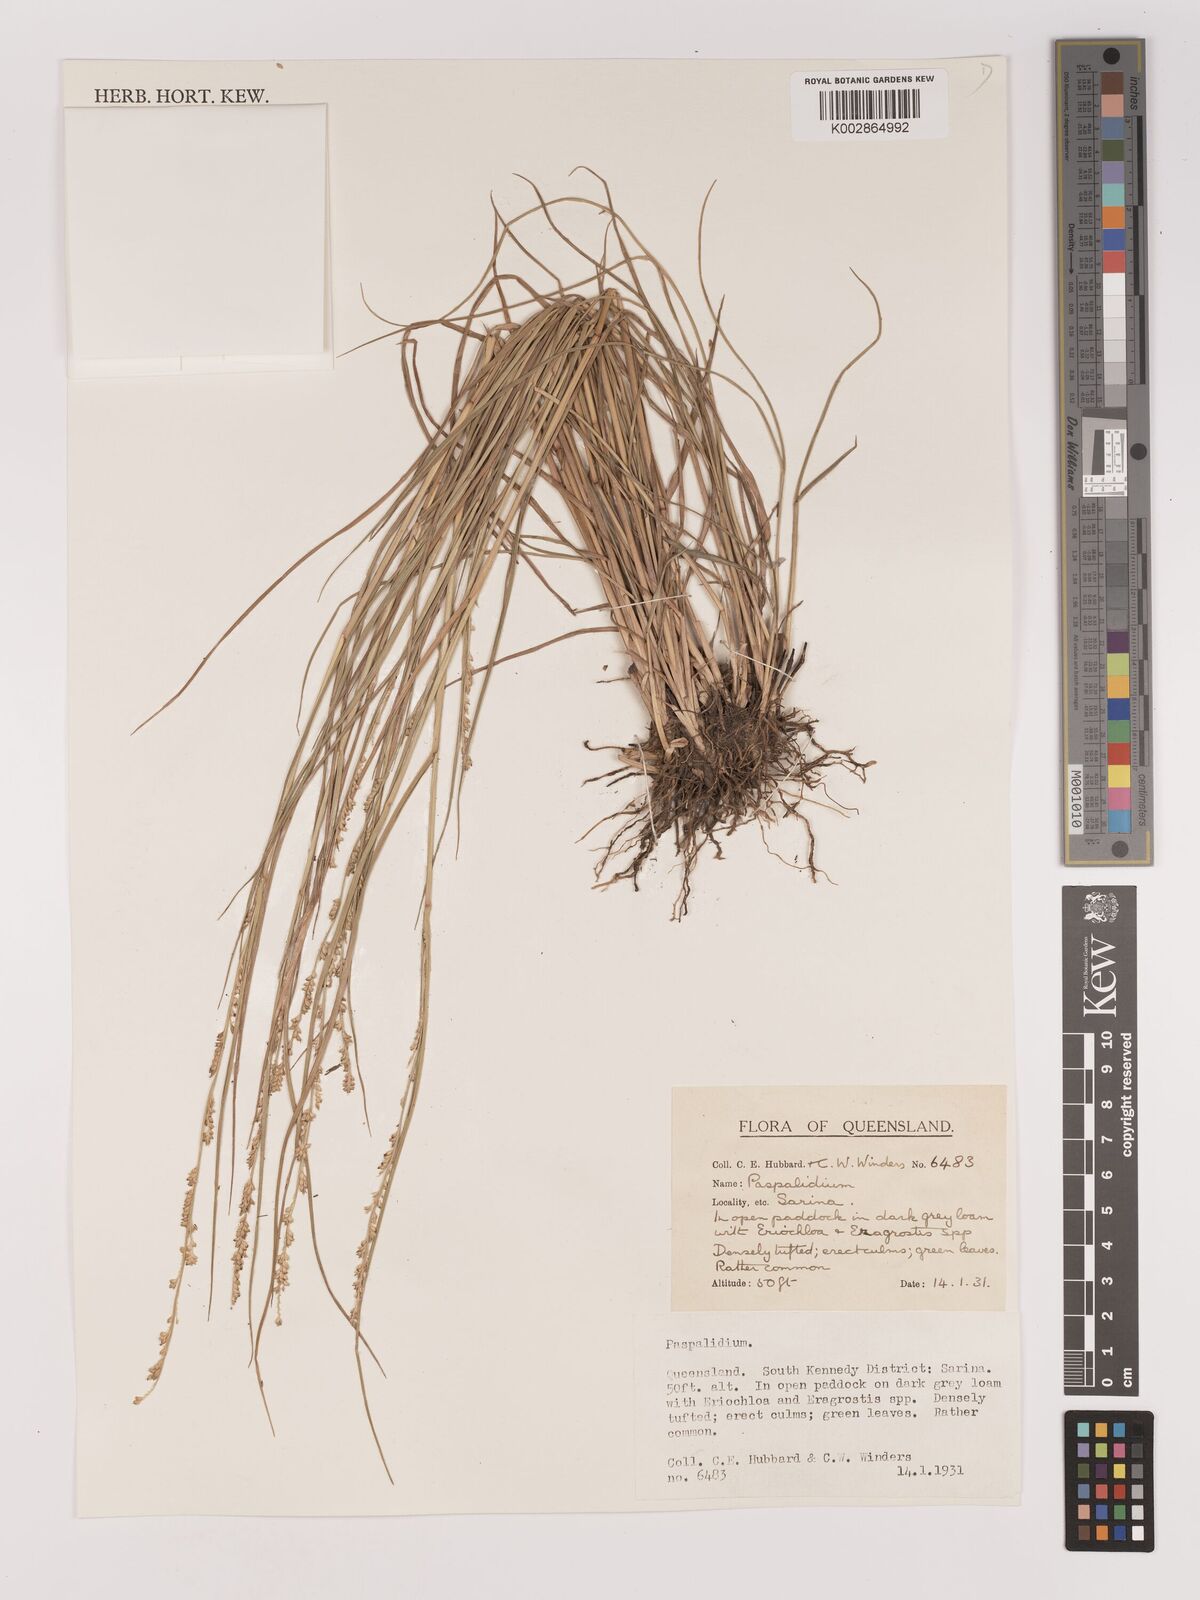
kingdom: Plantae
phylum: Tracheophyta
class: Liliopsida
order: Poales
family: Poaceae
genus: Setaria
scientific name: Setaria
